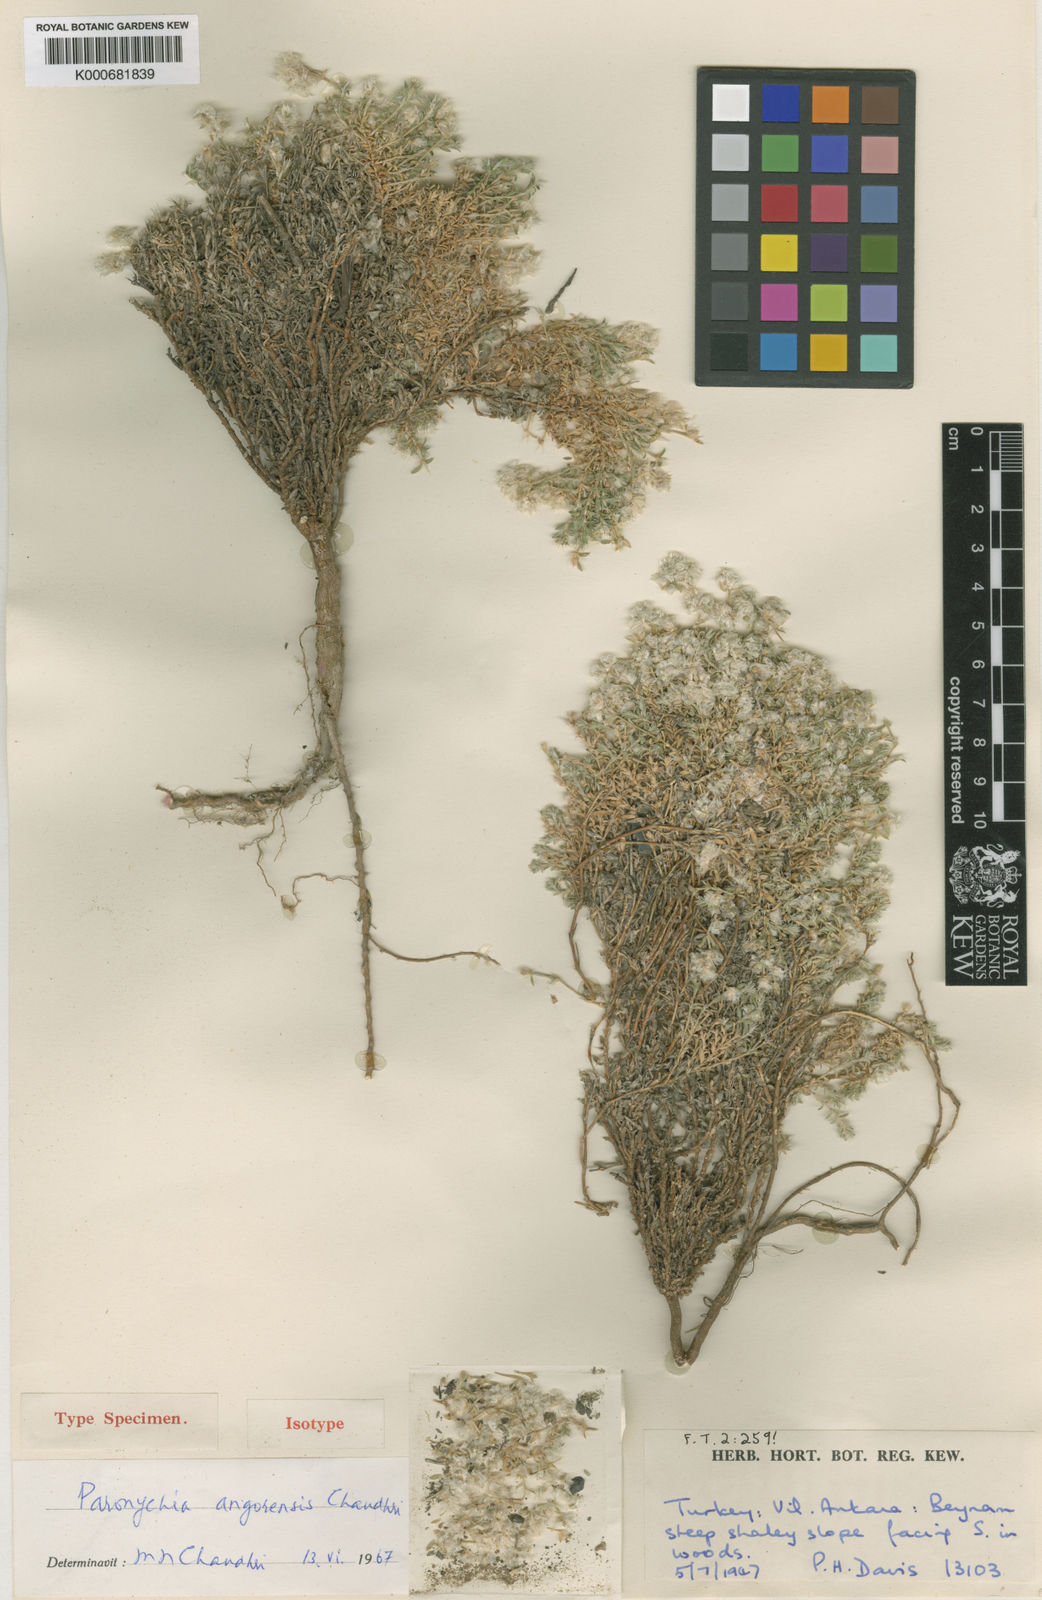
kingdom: Plantae
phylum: Tracheophyta
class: Magnoliopsida
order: Caryophyllales
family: Caryophyllaceae
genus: Paronychia
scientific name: Paronychia angorensis
